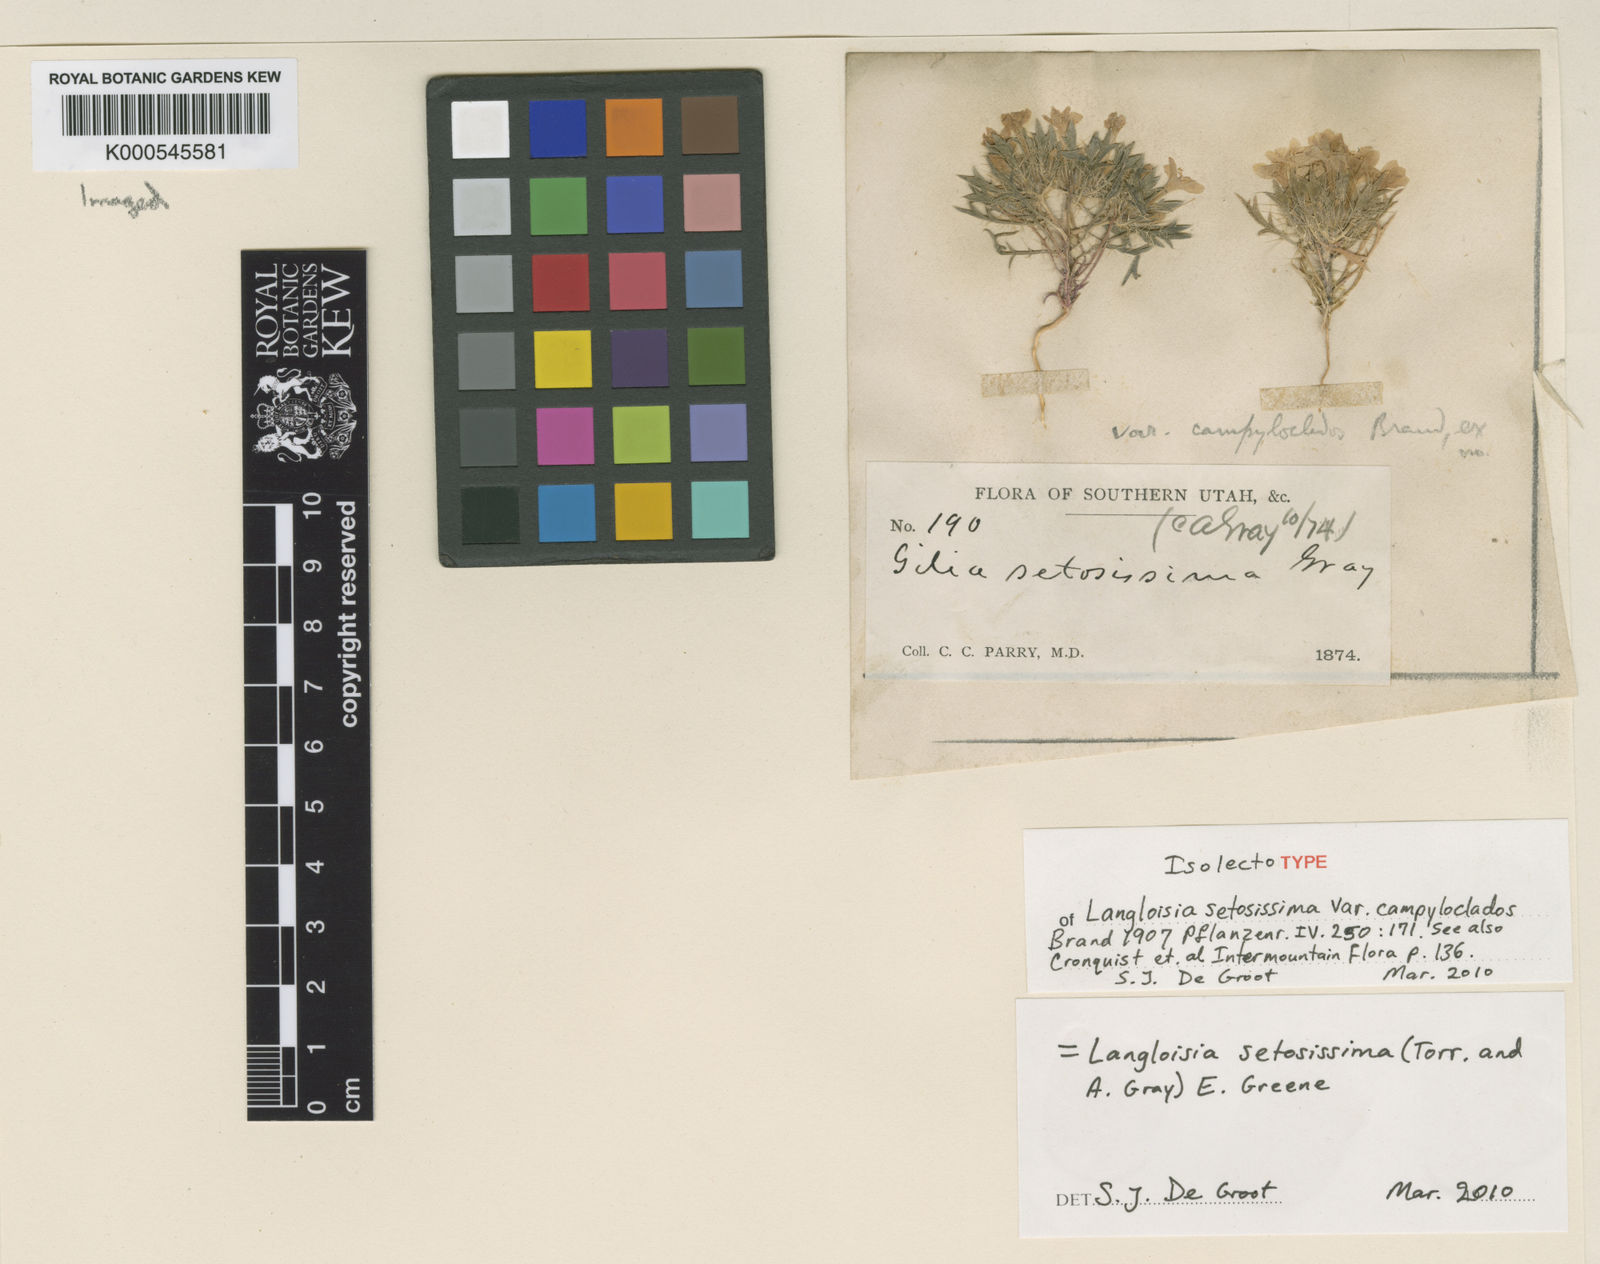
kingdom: Plantae
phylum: Tracheophyta
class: Magnoliopsida
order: Ericales
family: Polemoniaceae
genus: Langloisia
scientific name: Langloisia setosissima
